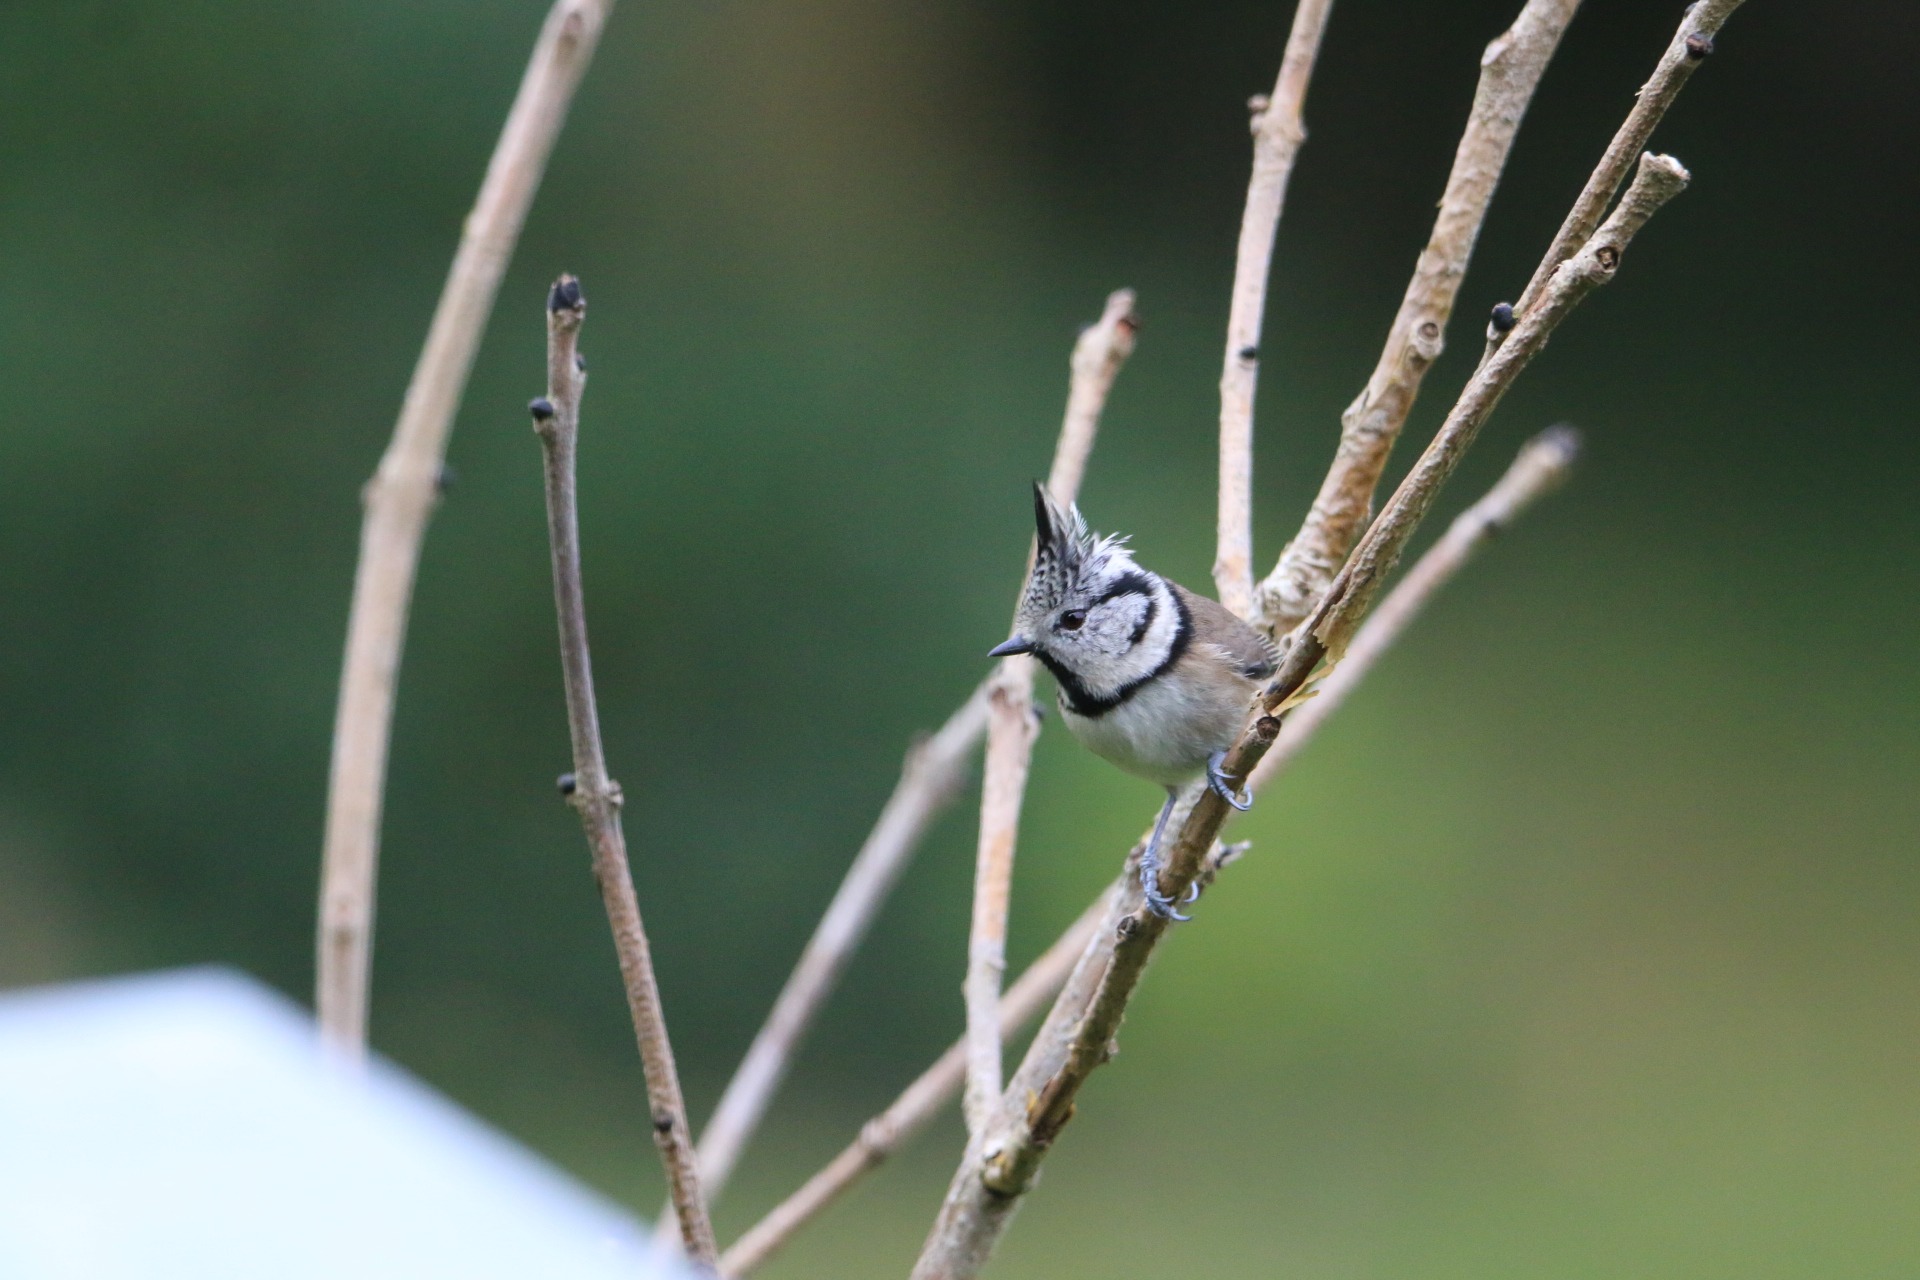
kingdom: Animalia
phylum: Chordata
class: Aves
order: Passeriformes
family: Paridae
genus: Lophophanes
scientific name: Lophophanes cristatus
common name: Topmejse
